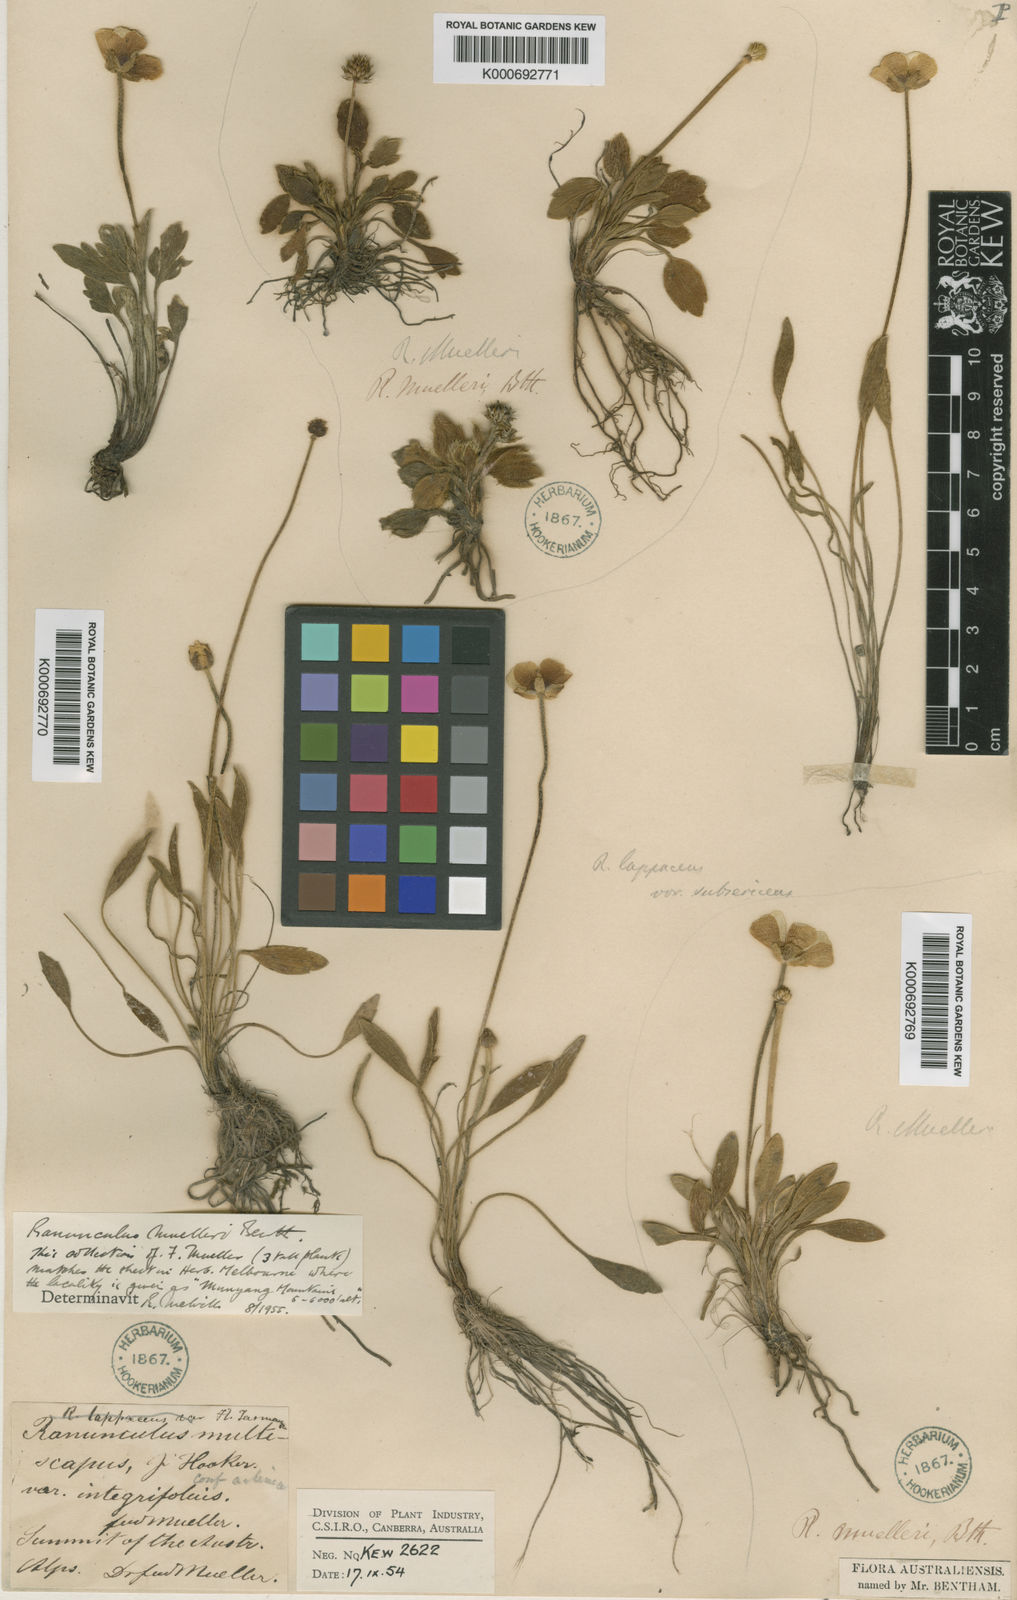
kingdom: Plantae
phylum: Tracheophyta
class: Magnoliopsida
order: Ranunculales
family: Ranunculaceae
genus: Ranunculus
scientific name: Ranunculus muelleri
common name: Felted buttercup
